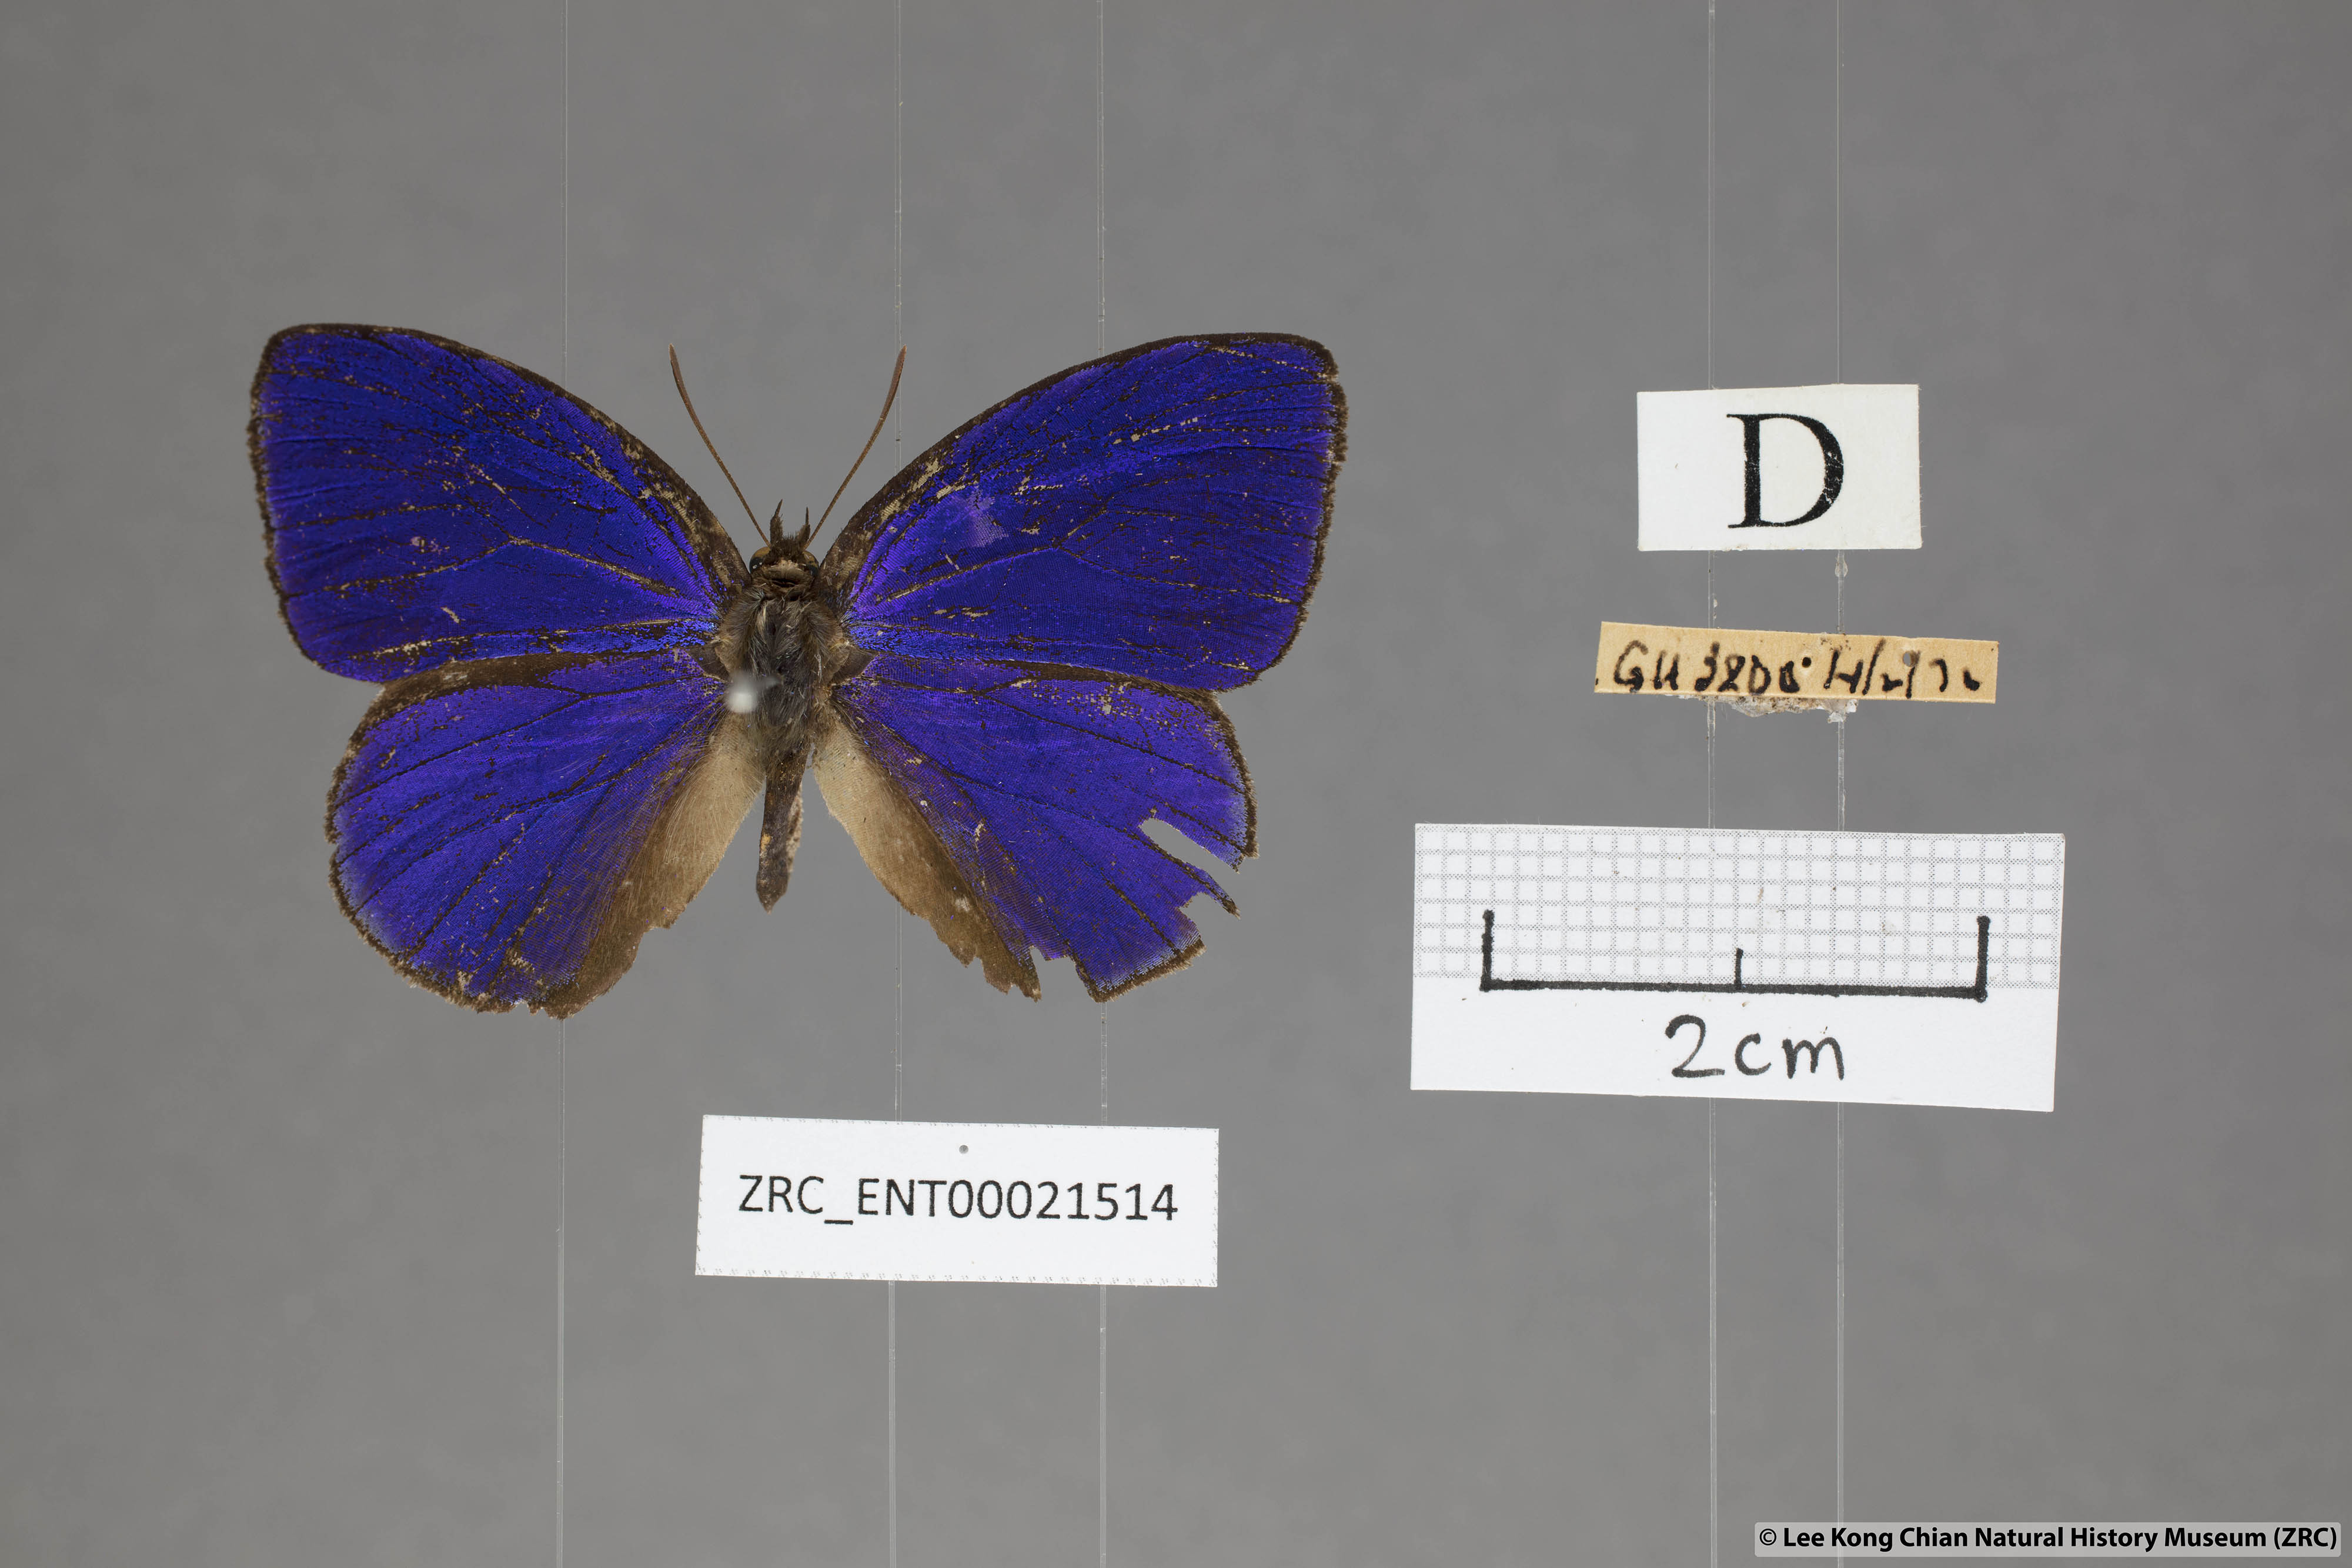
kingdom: Animalia
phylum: Arthropoda
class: Insecta
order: Lepidoptera
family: Lycaenidae
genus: Flos
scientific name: Flos
